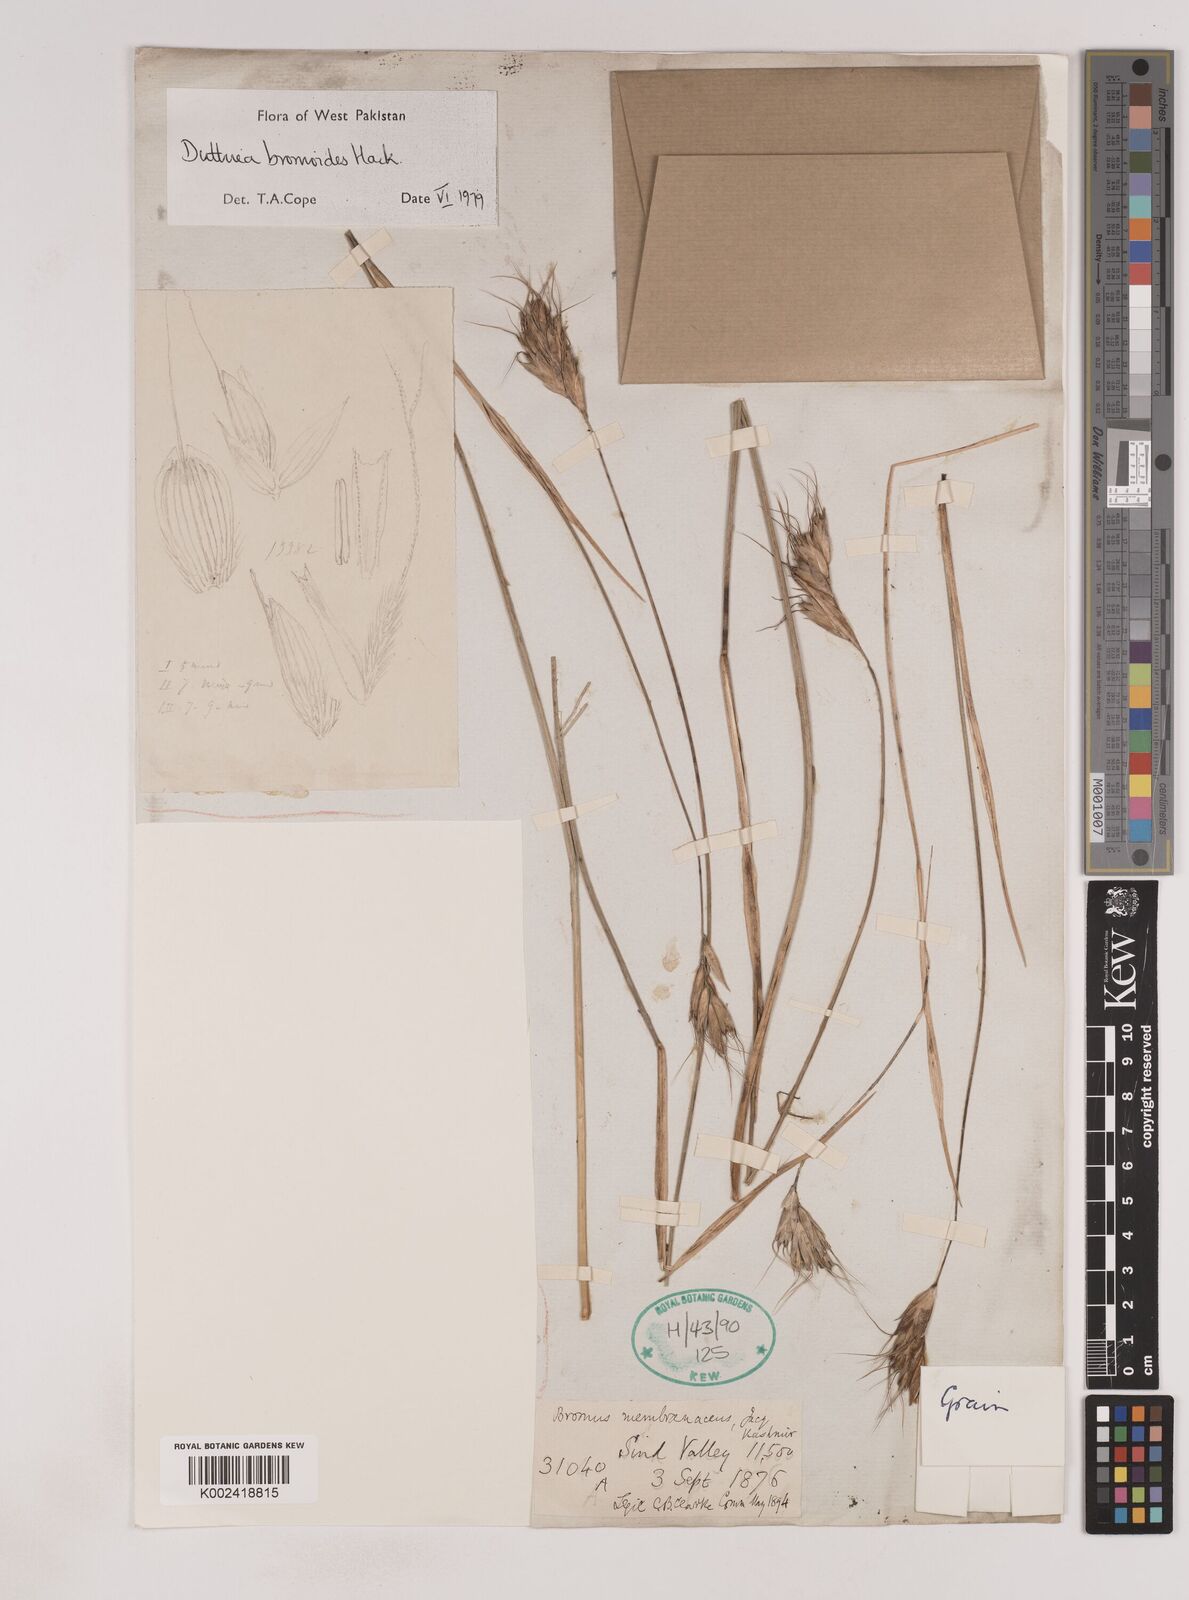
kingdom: Plantae
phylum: Tracheophyta
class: Liliopsida
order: Poales
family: Poaceae
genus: Duthiea
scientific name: Duthiea bromoides
